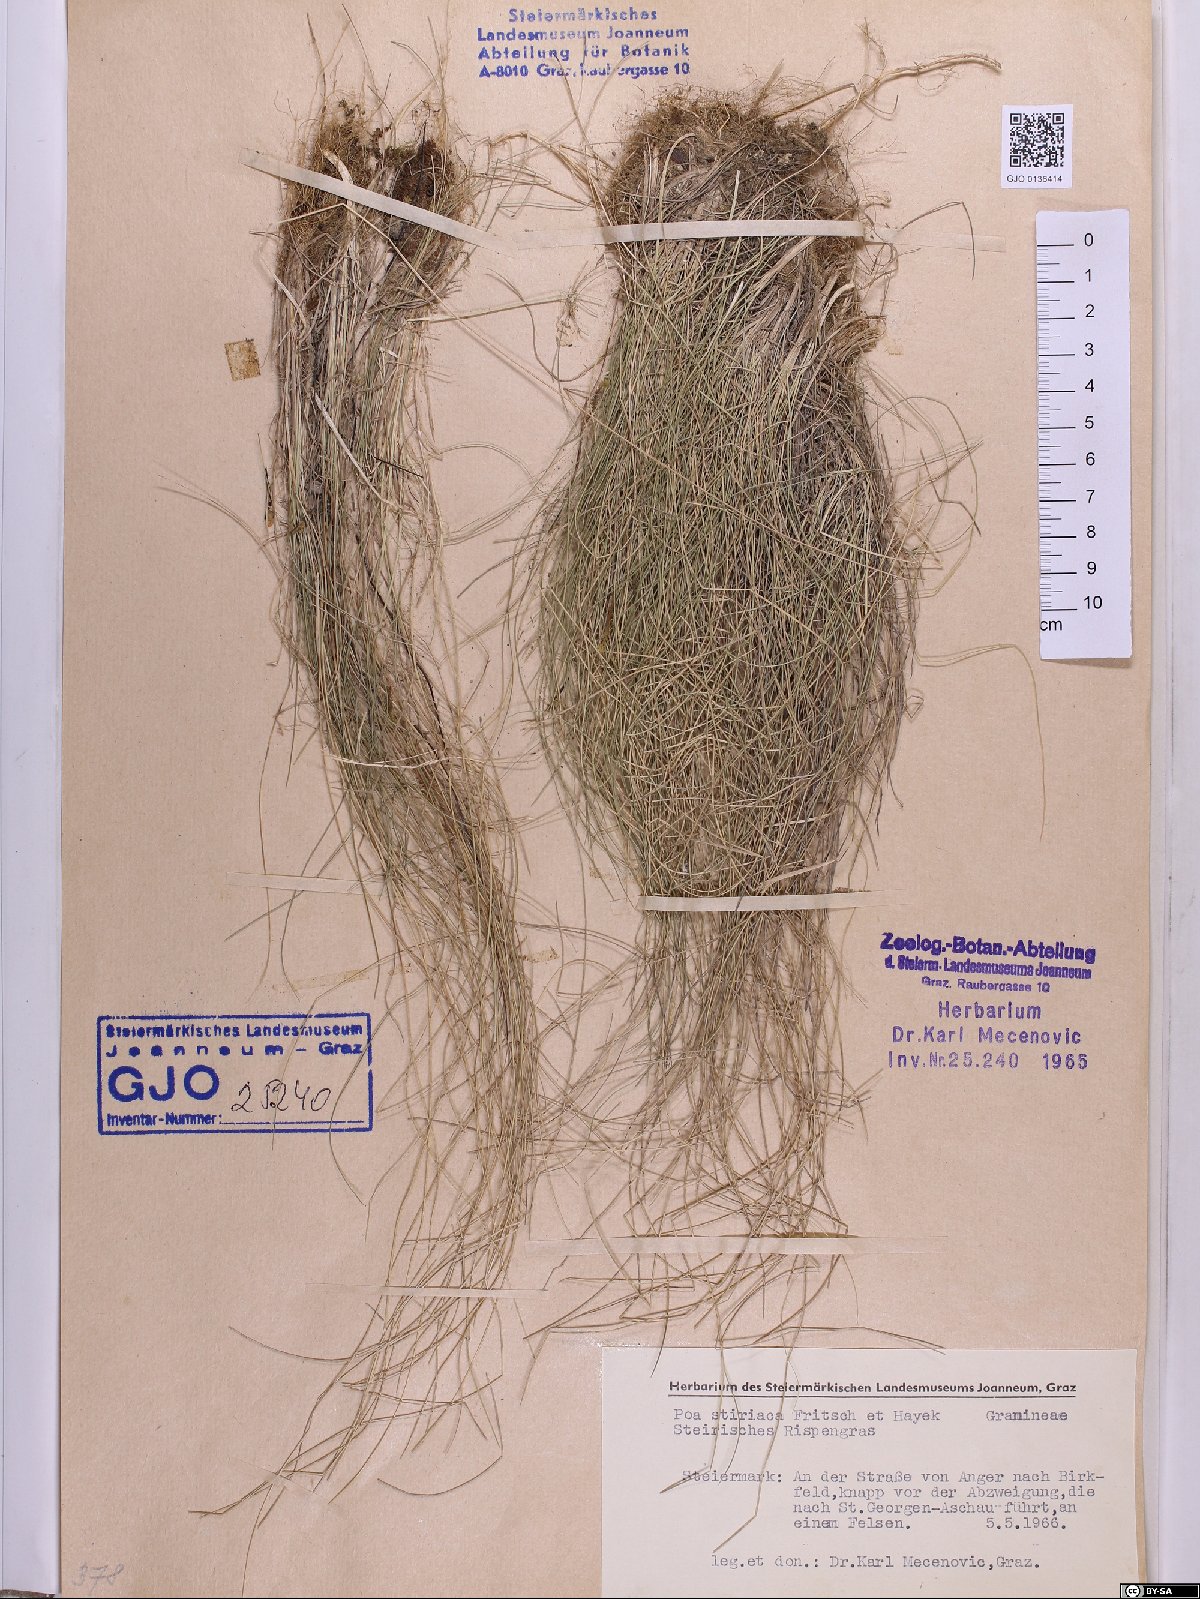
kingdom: Plantae
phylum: Tracheophyta
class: Liliopsida
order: Poales
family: Poaceae
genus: Poa
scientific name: Poa stiriaca
